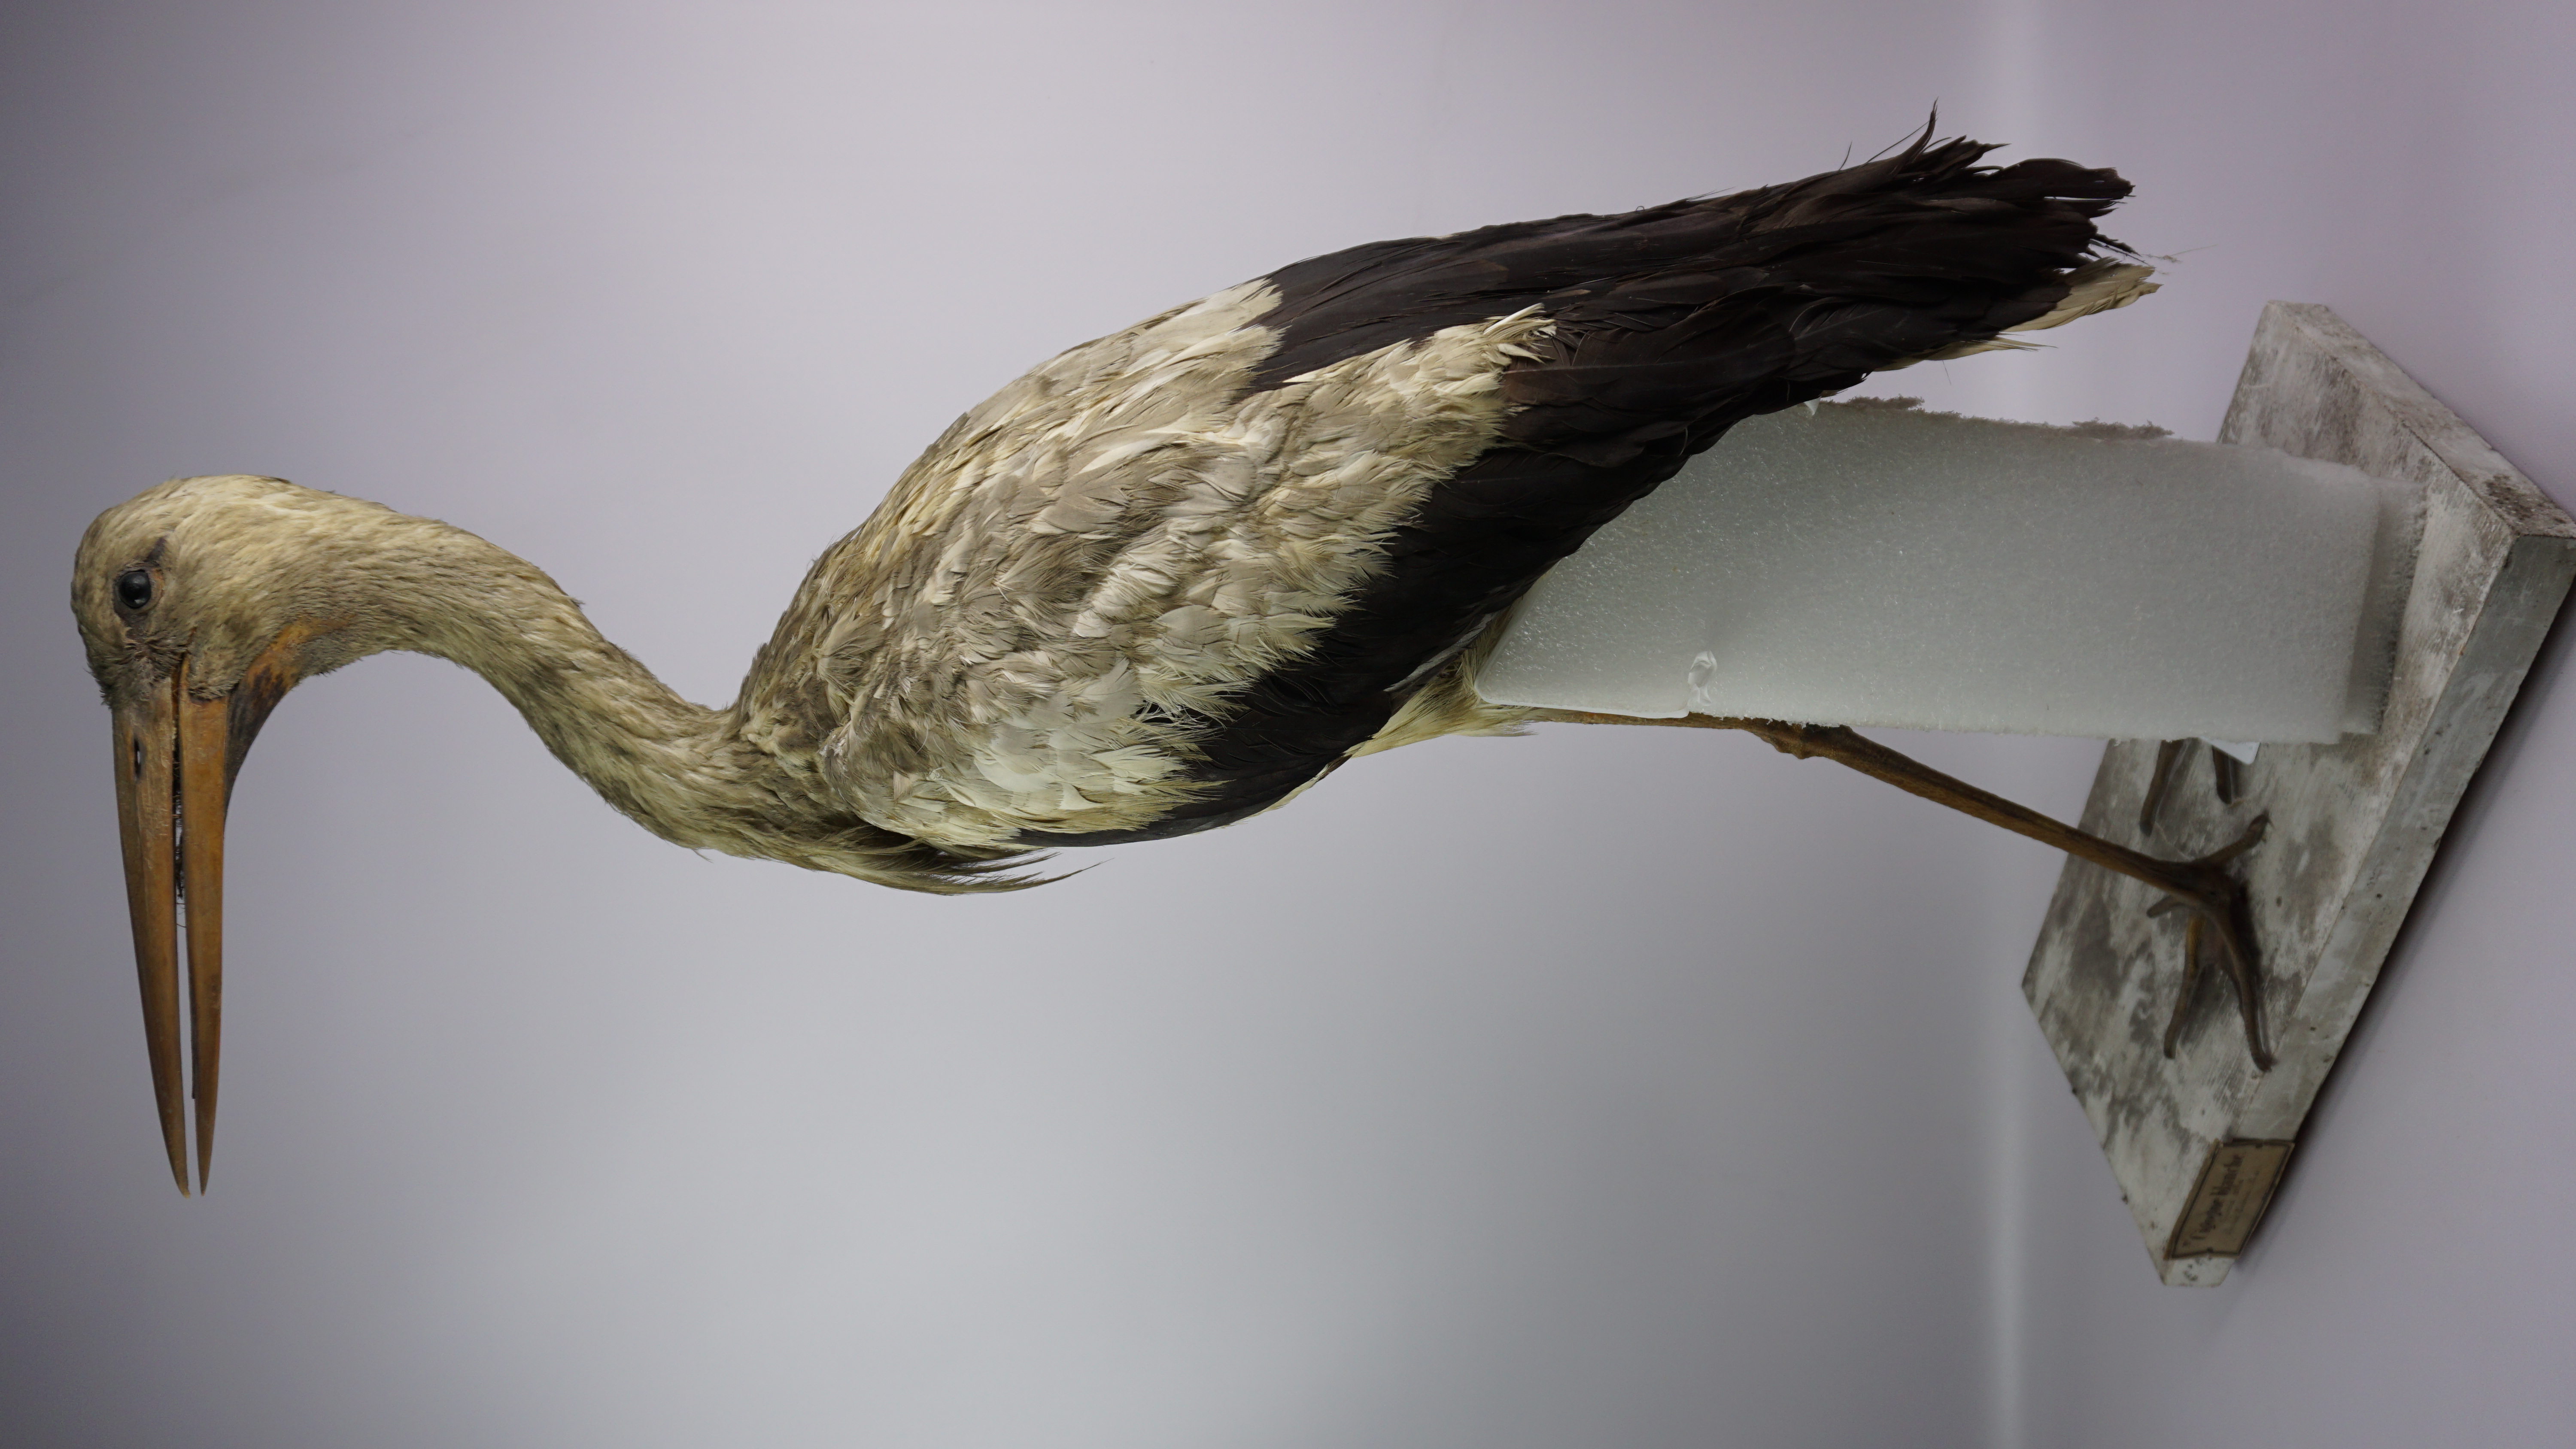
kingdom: Animalia
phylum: Chordata
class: Aves
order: Ciconiiformes
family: Ciconiidae
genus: Ciconia
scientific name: Ciconia ciconia
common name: White stork
